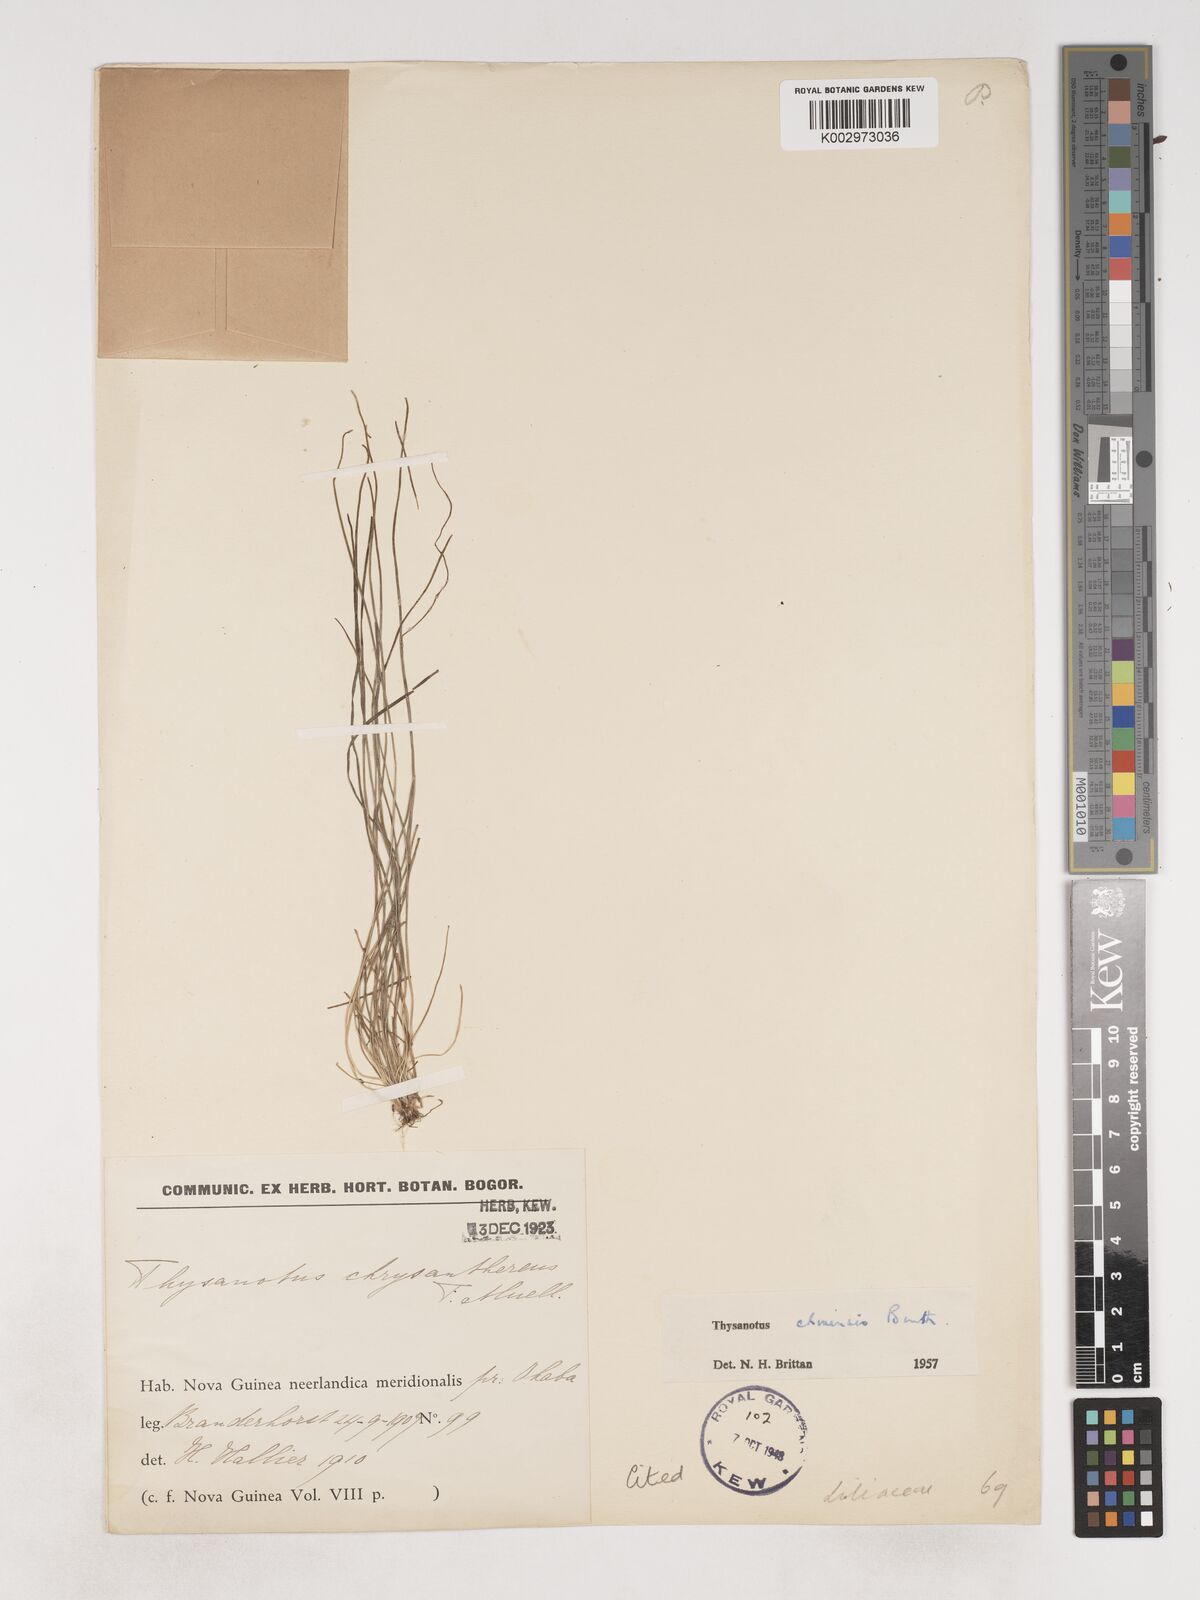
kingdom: Plantae
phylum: Tracheophyta
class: Liliopsida
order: Asparagales
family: Asparagaceae
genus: Thysanotus
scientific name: Thysanotus chinensis
